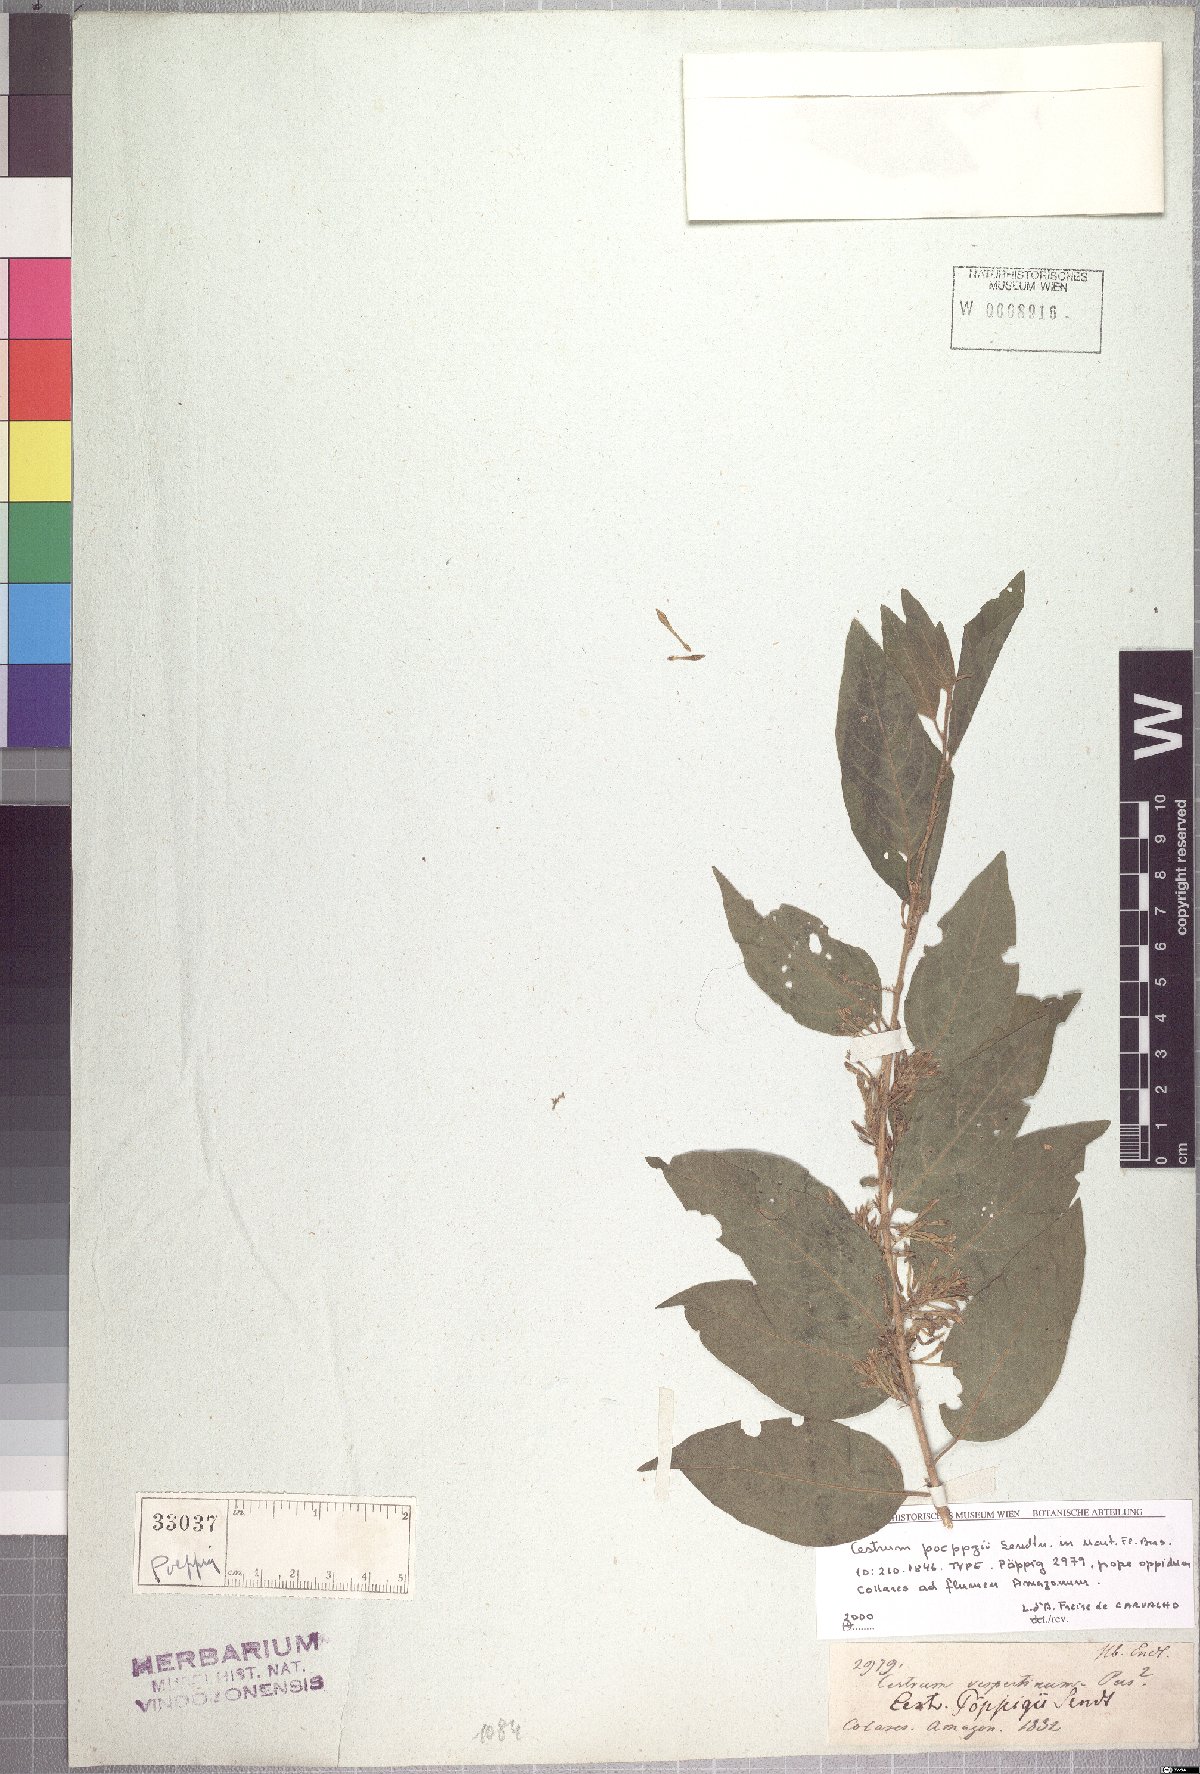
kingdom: Plantae
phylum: Tracheophyta
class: Magnoliopsida
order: Solanales
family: Solanaceae
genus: Cestrum
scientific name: Cestrum latifolium
